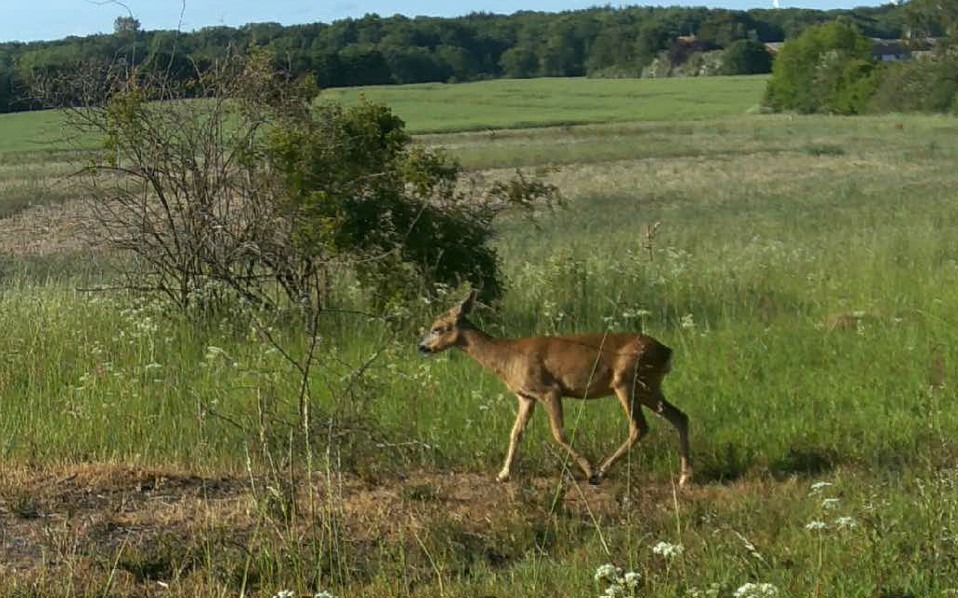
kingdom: Animalia
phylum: Chordata
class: Mammalia
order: Artiodactyla
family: Cervidae
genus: Capreolus
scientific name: Capreolus capreolus
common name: Rådyr
